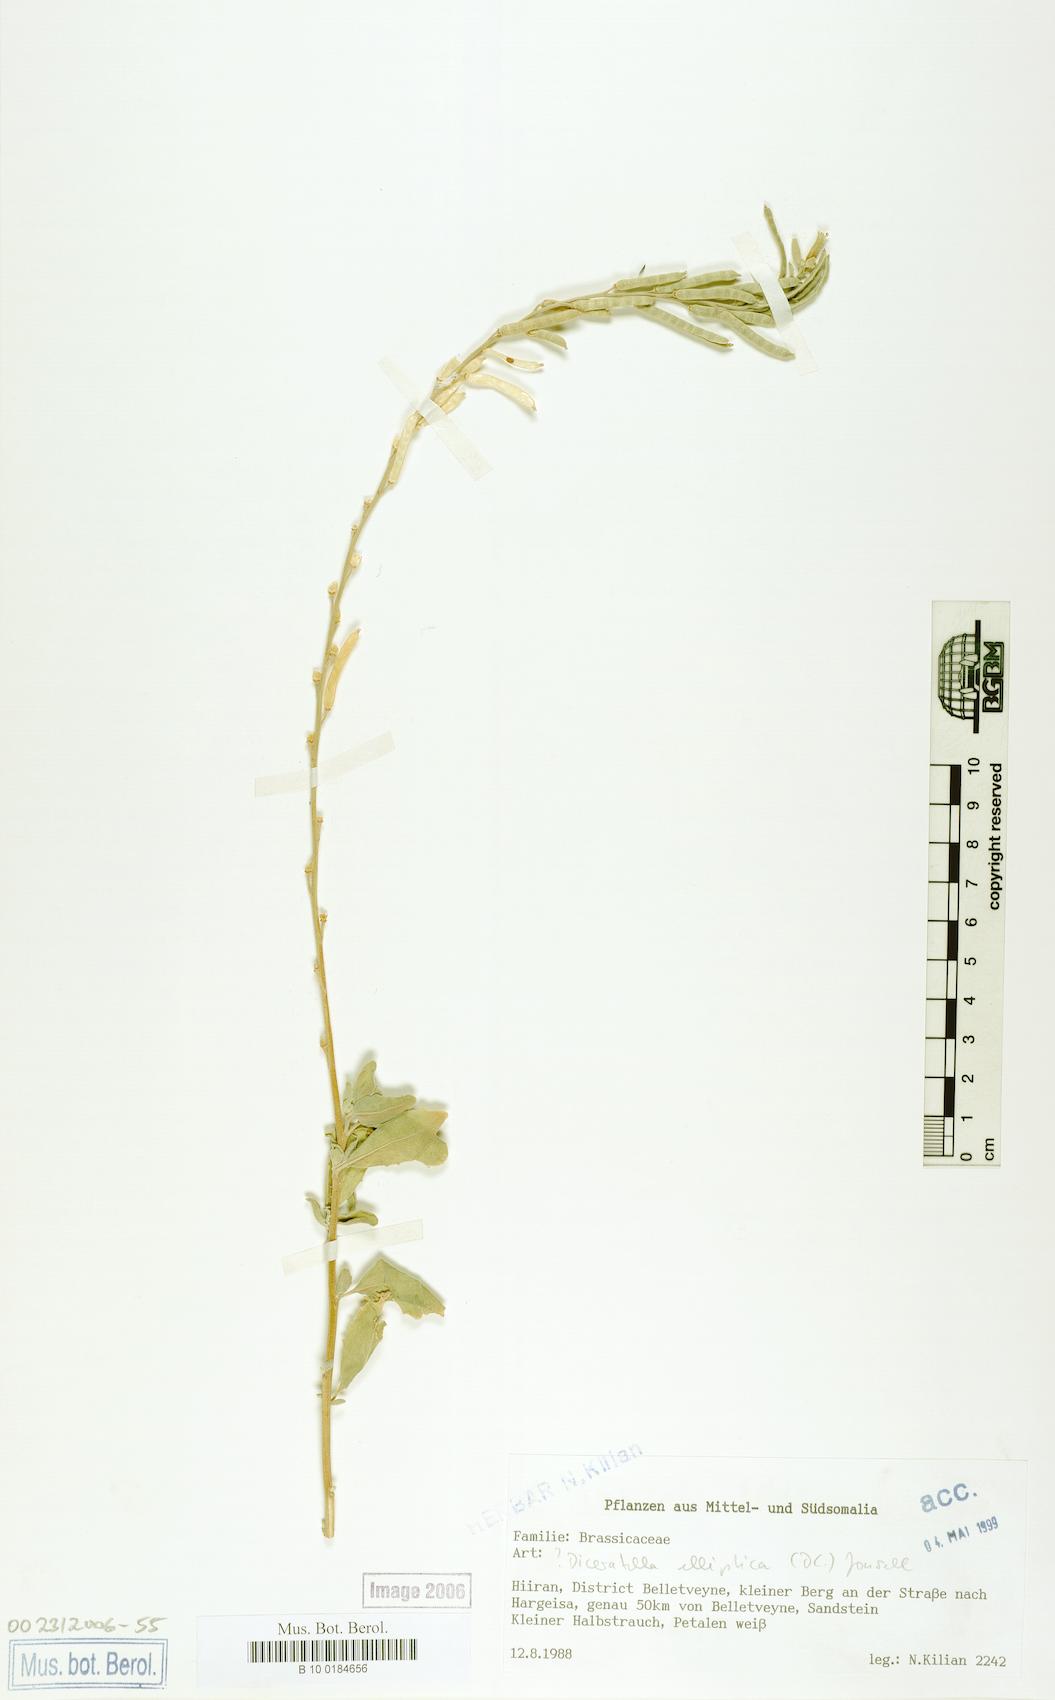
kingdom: Plantae
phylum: Tracheophyta
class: Magnoliopsida
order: Brassicales
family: Brassicaceae
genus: Diceratella
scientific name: Diceratella elliptica
